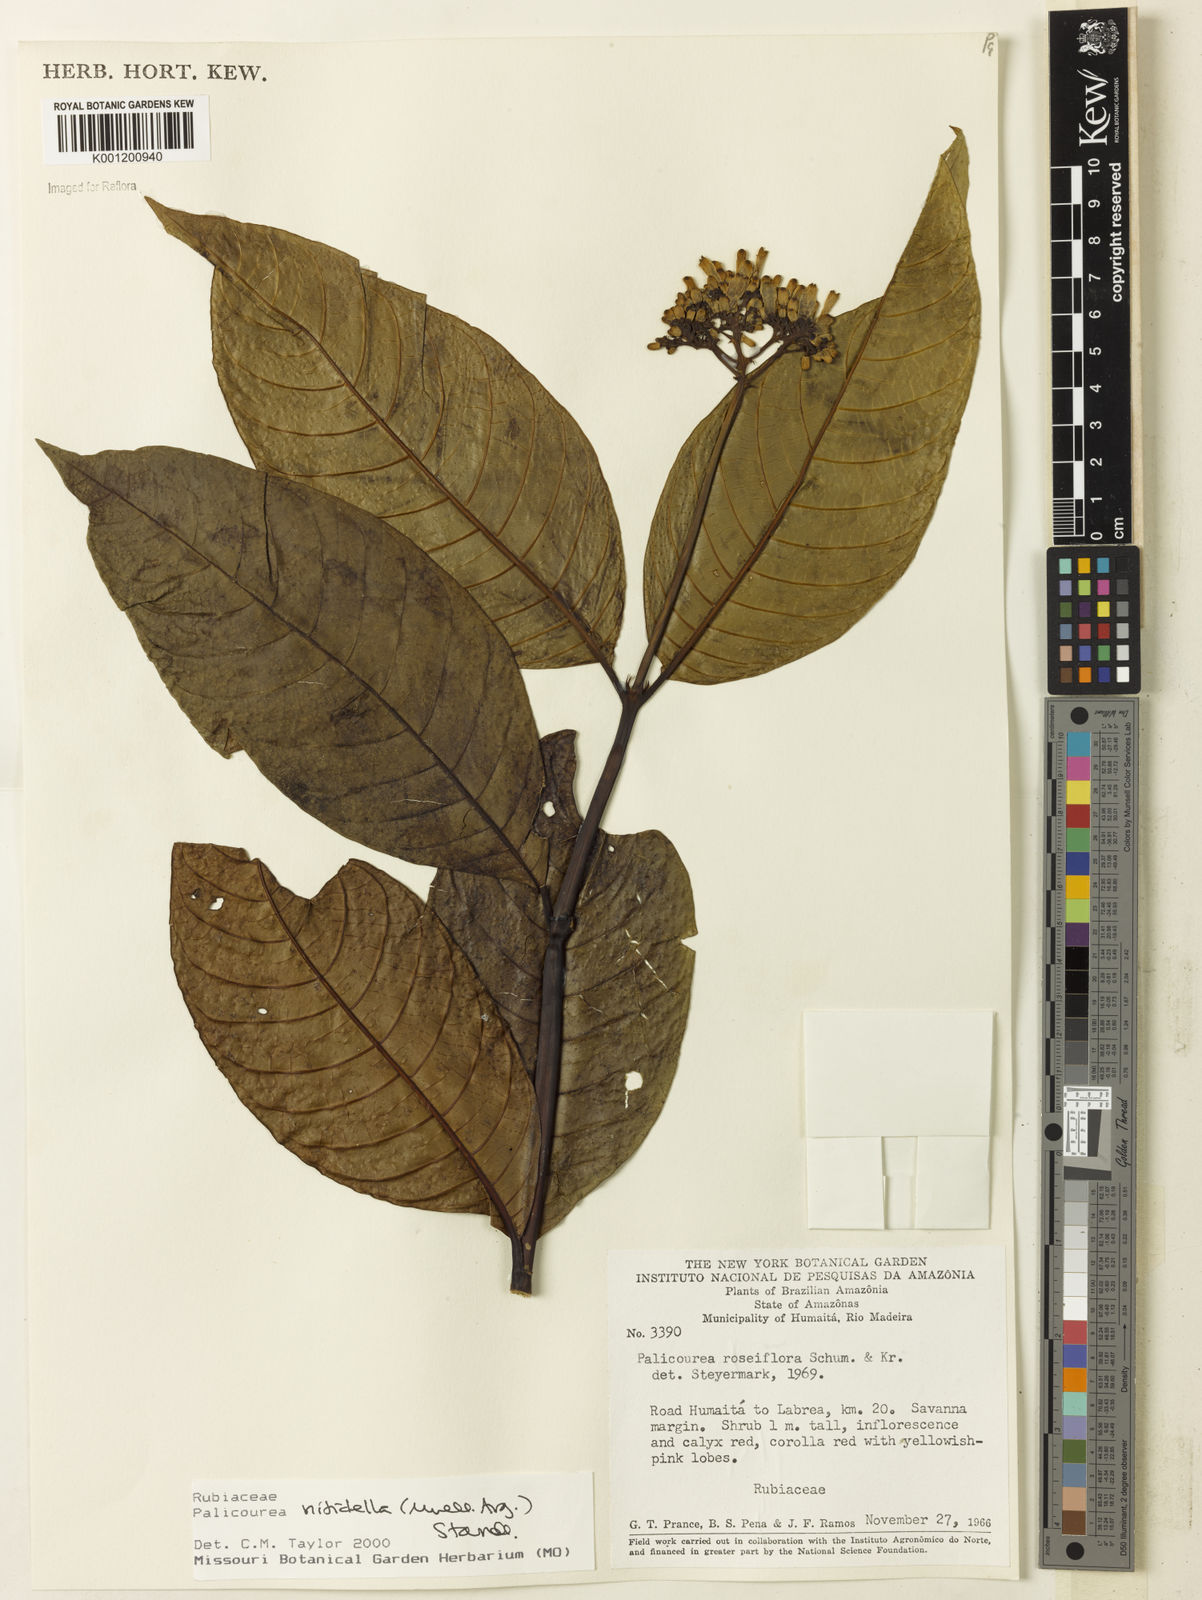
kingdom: Plantae
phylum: Tracheophyta
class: Magnoliopsida
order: Gentianales
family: Rubiaceae
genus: Palicourea
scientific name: Palicourea
